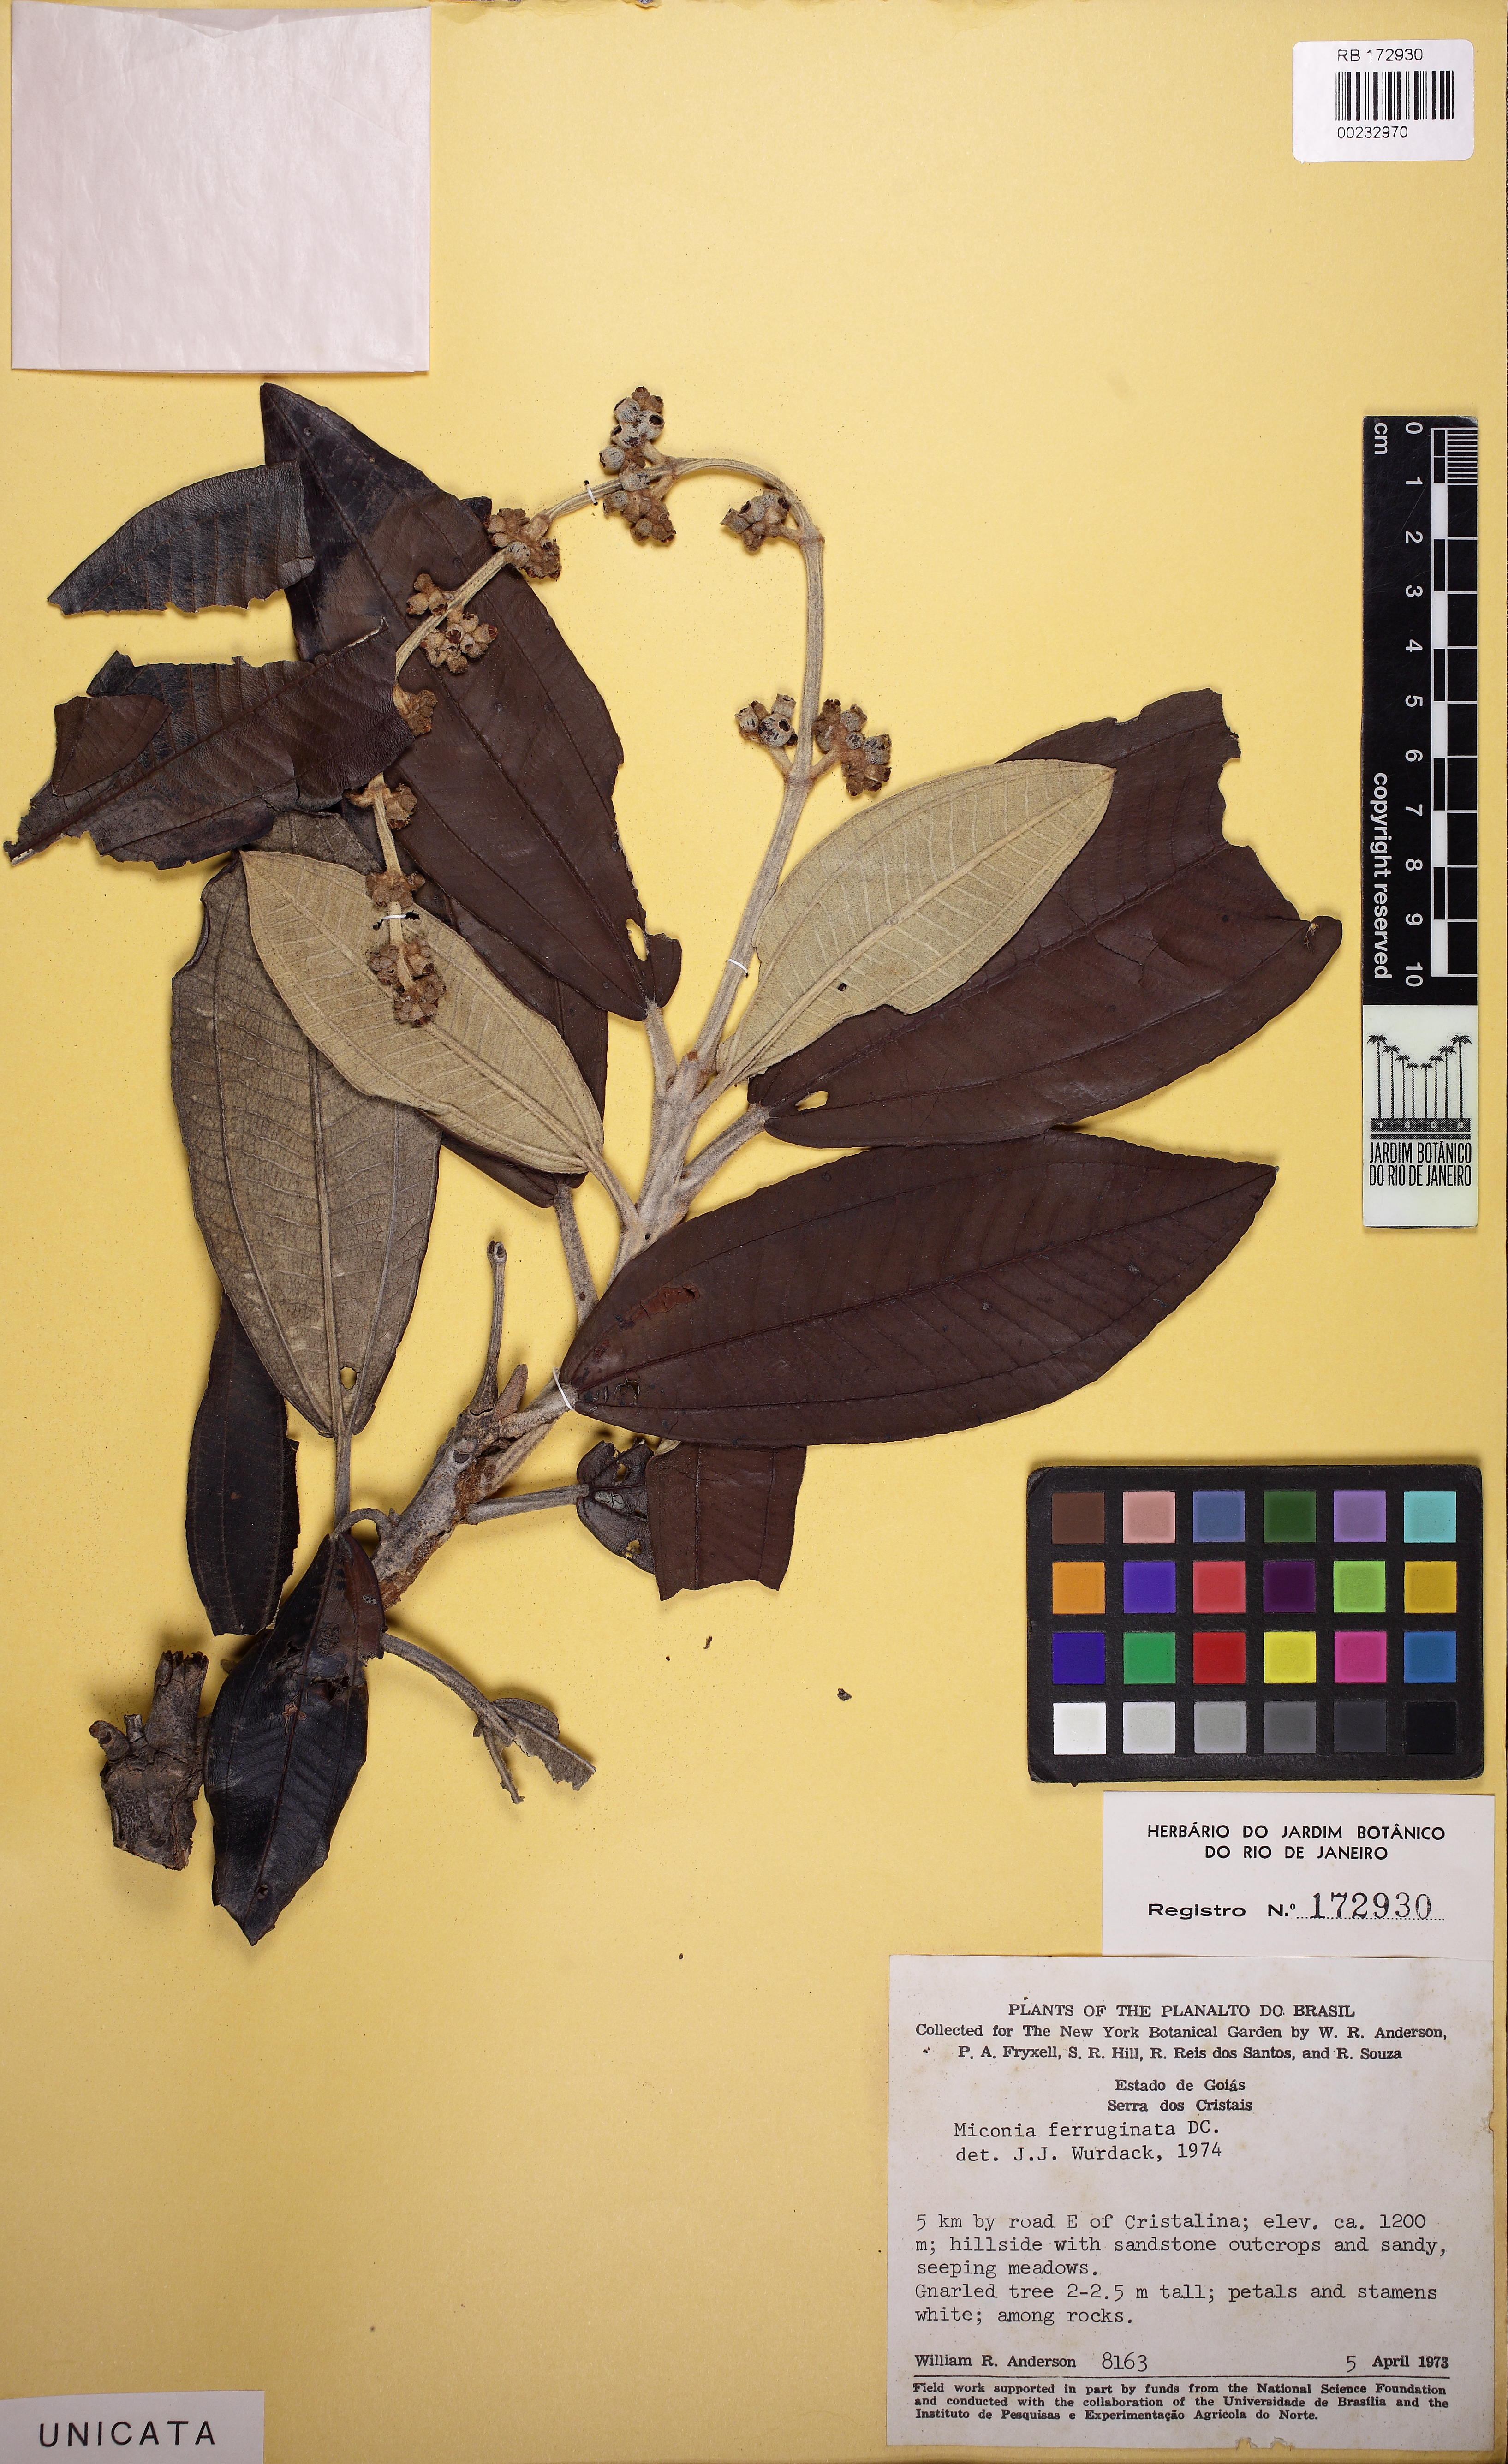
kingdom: Plantae
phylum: Tracheophyta
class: Magnoliopsida
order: Myrtales
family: Melastomataceae
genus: Miconia
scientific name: Miconia ferruginata
